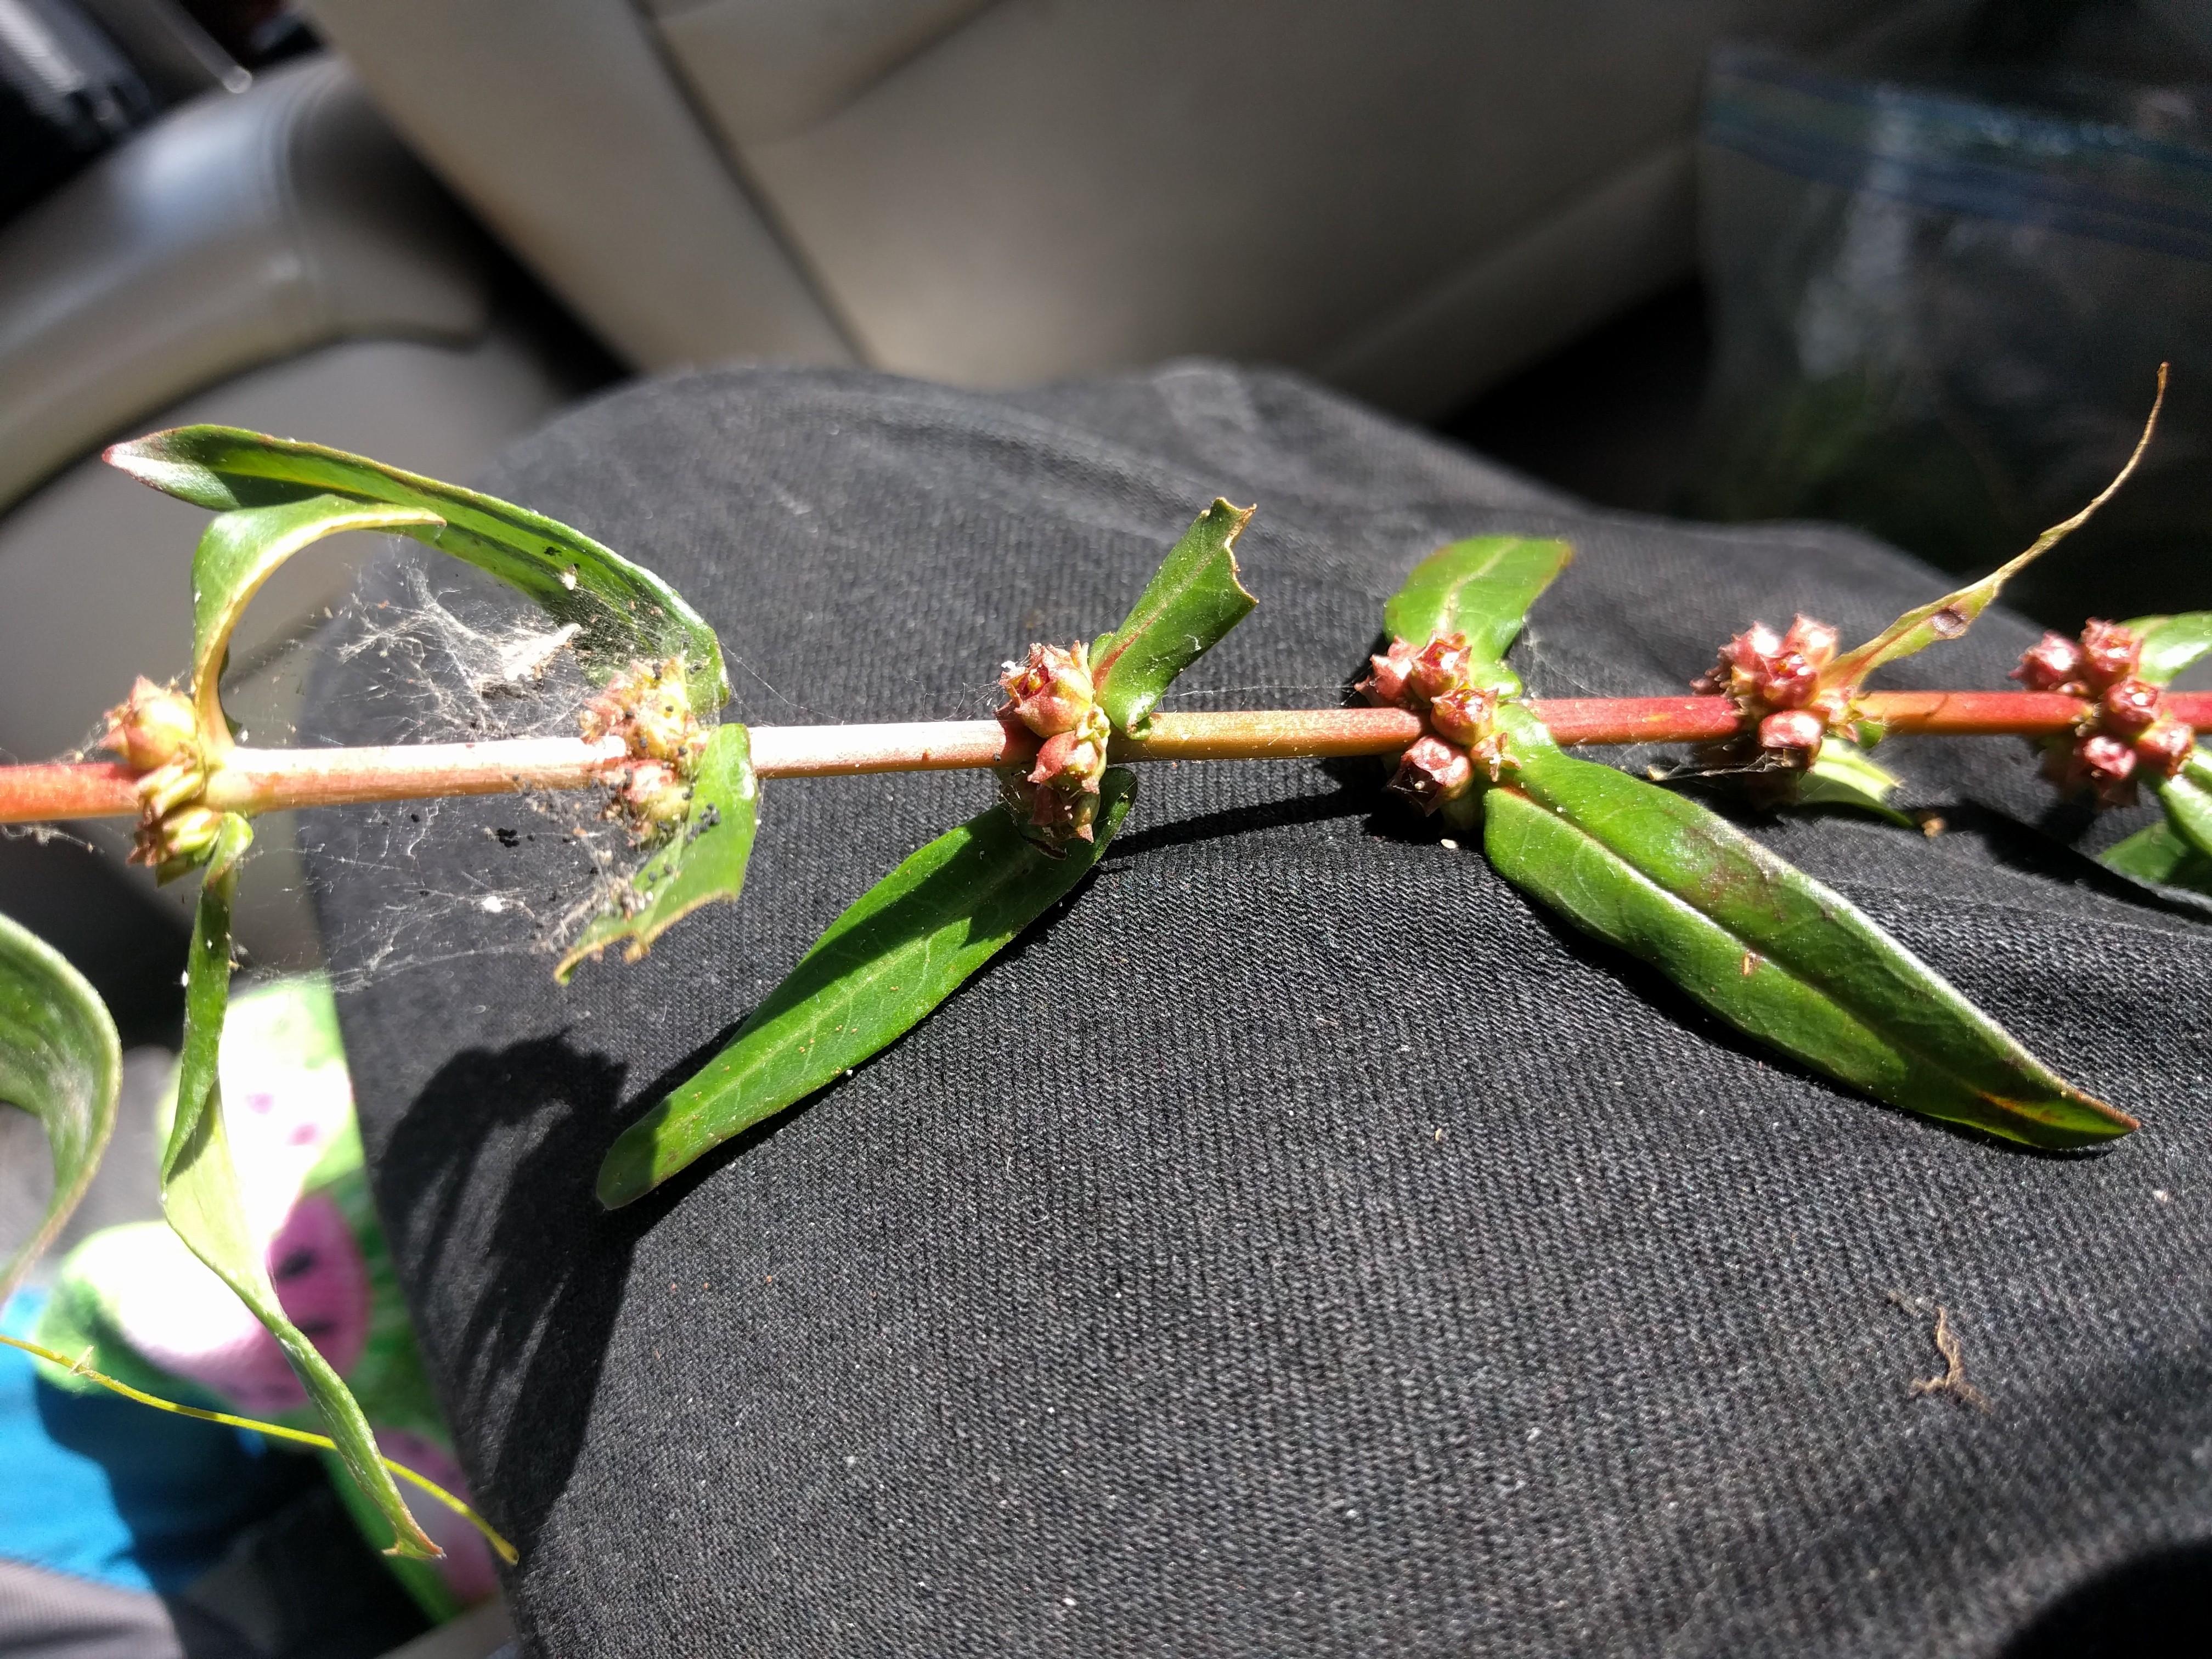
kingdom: Plantae
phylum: Tracheophyta
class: Magnoliopsida
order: Myrtales
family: Lythraceae
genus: Ammannia
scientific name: Ammannia latifolia
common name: Redstem
